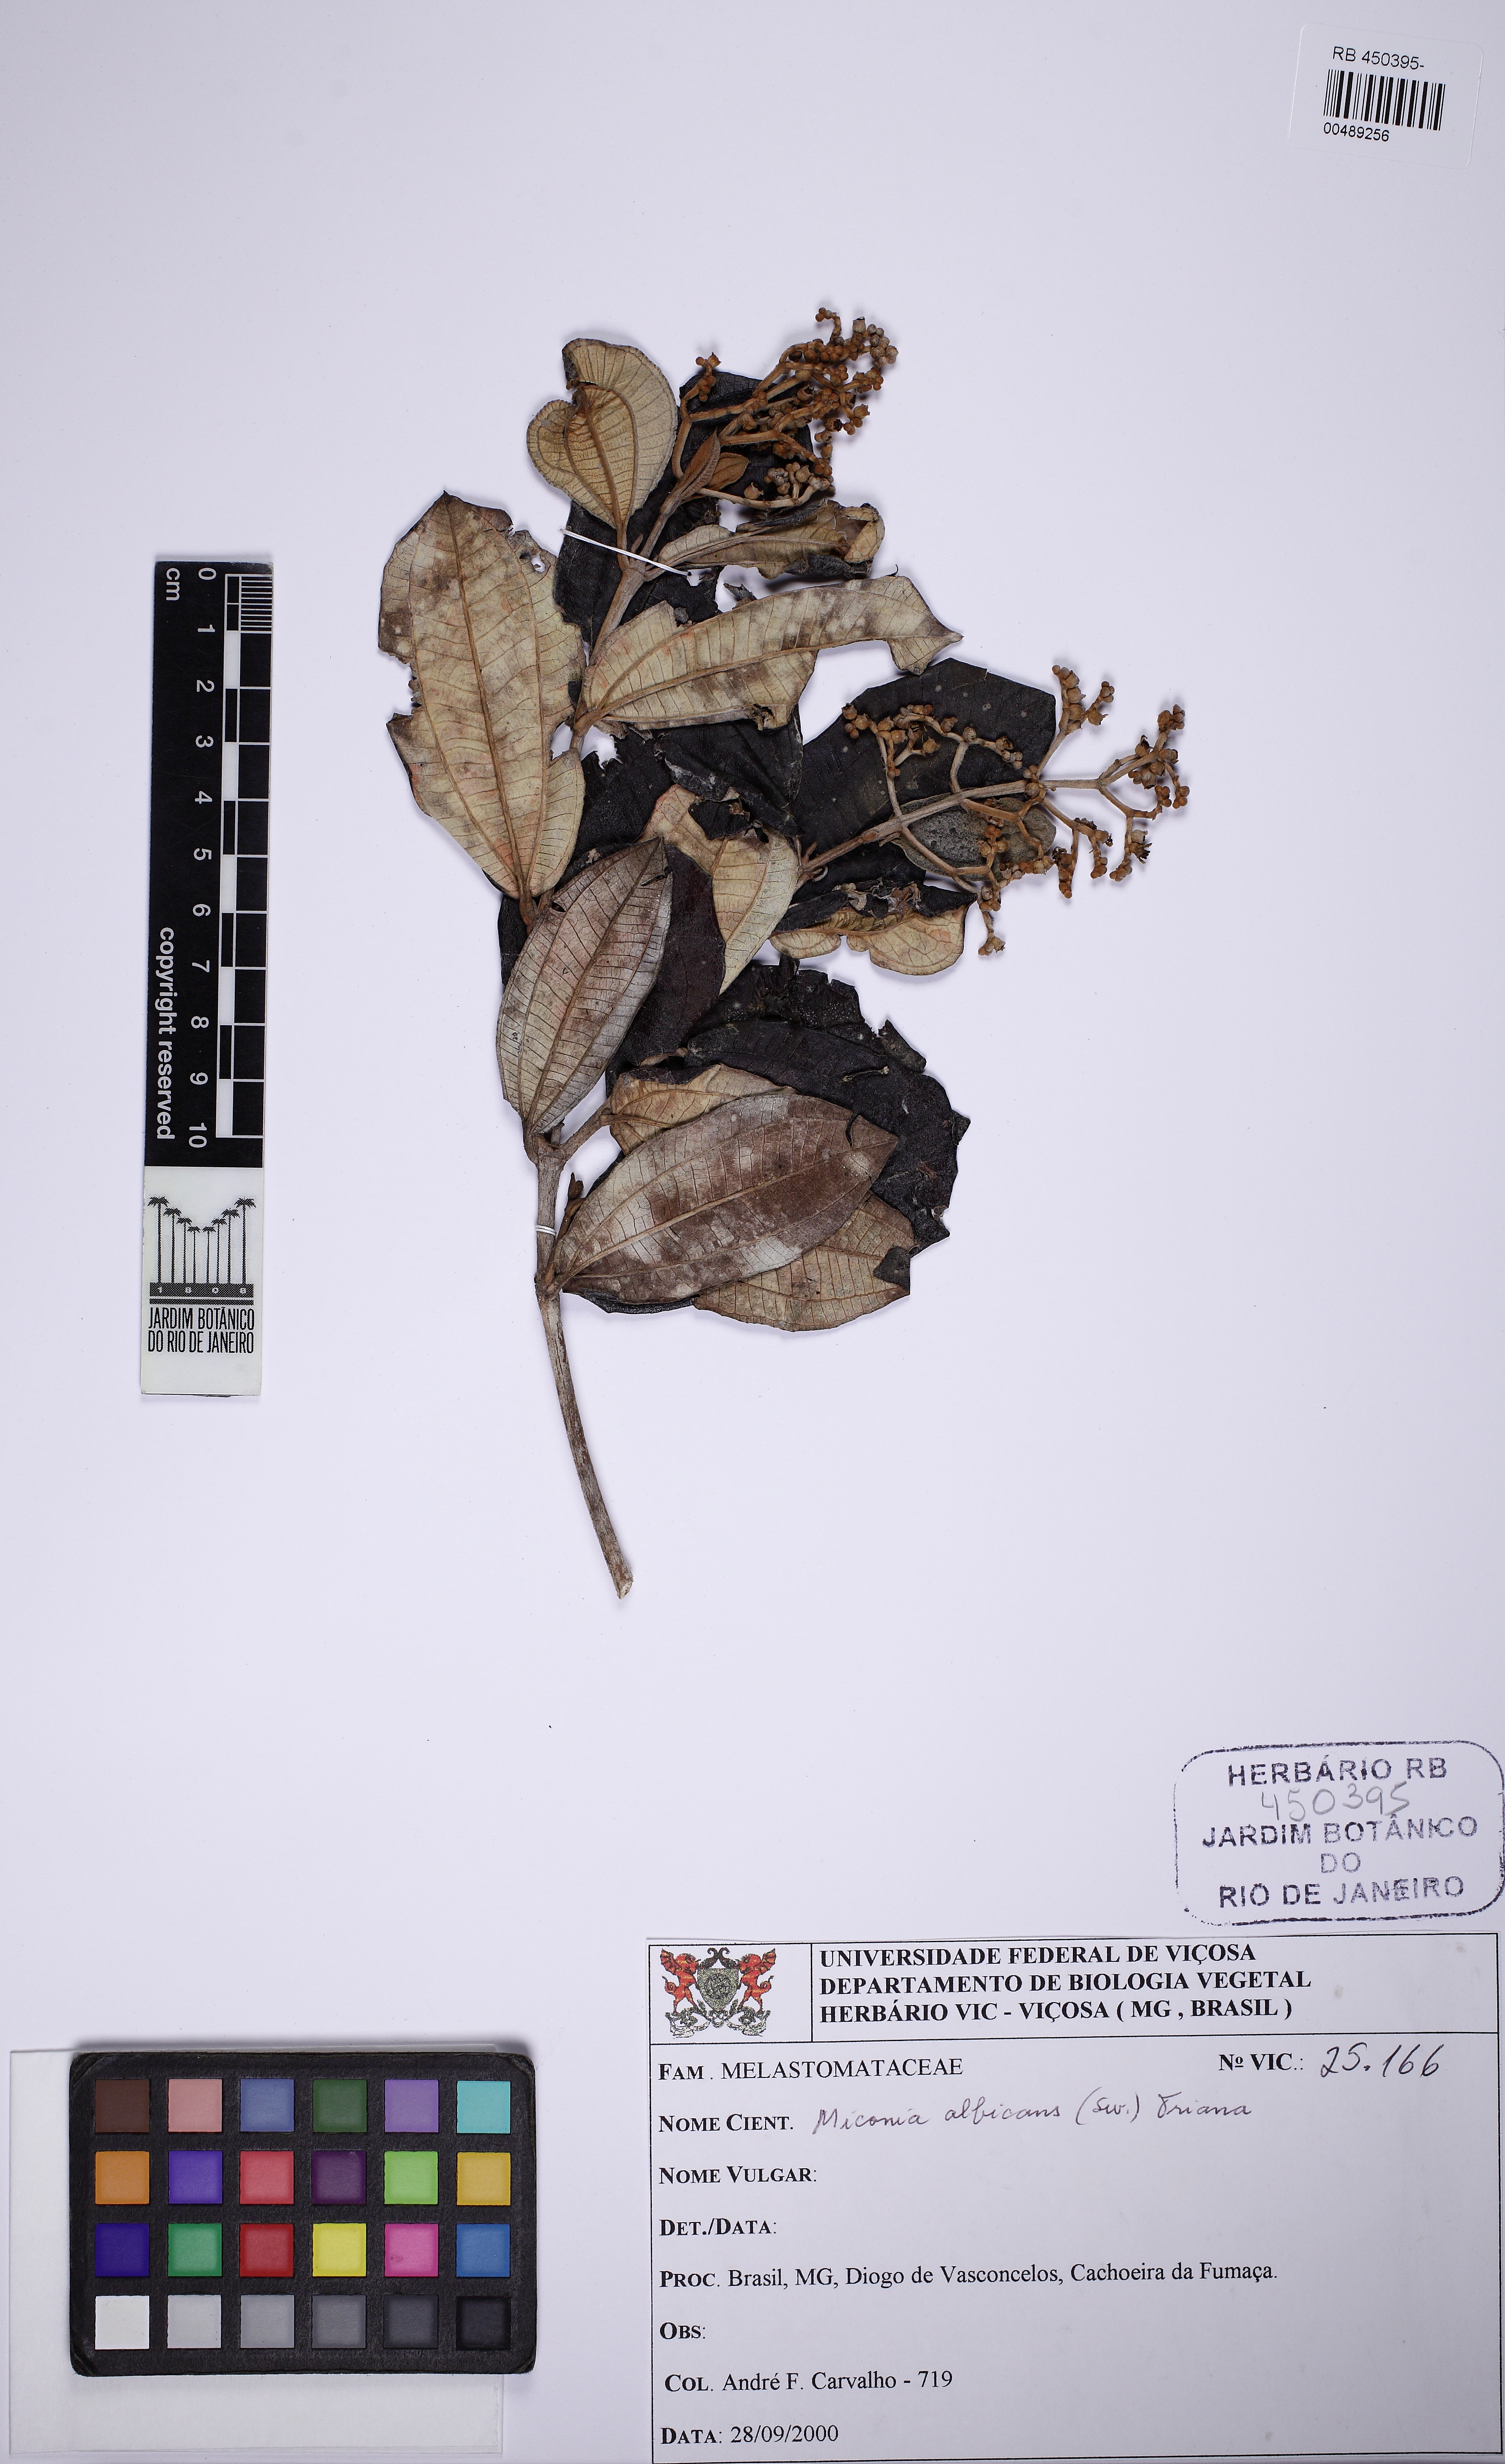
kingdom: Plantae
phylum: Tracheophyta
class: Magnoliopsida
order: Myrtales
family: Melastomataceae
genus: Miconia
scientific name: Miconia albicans
